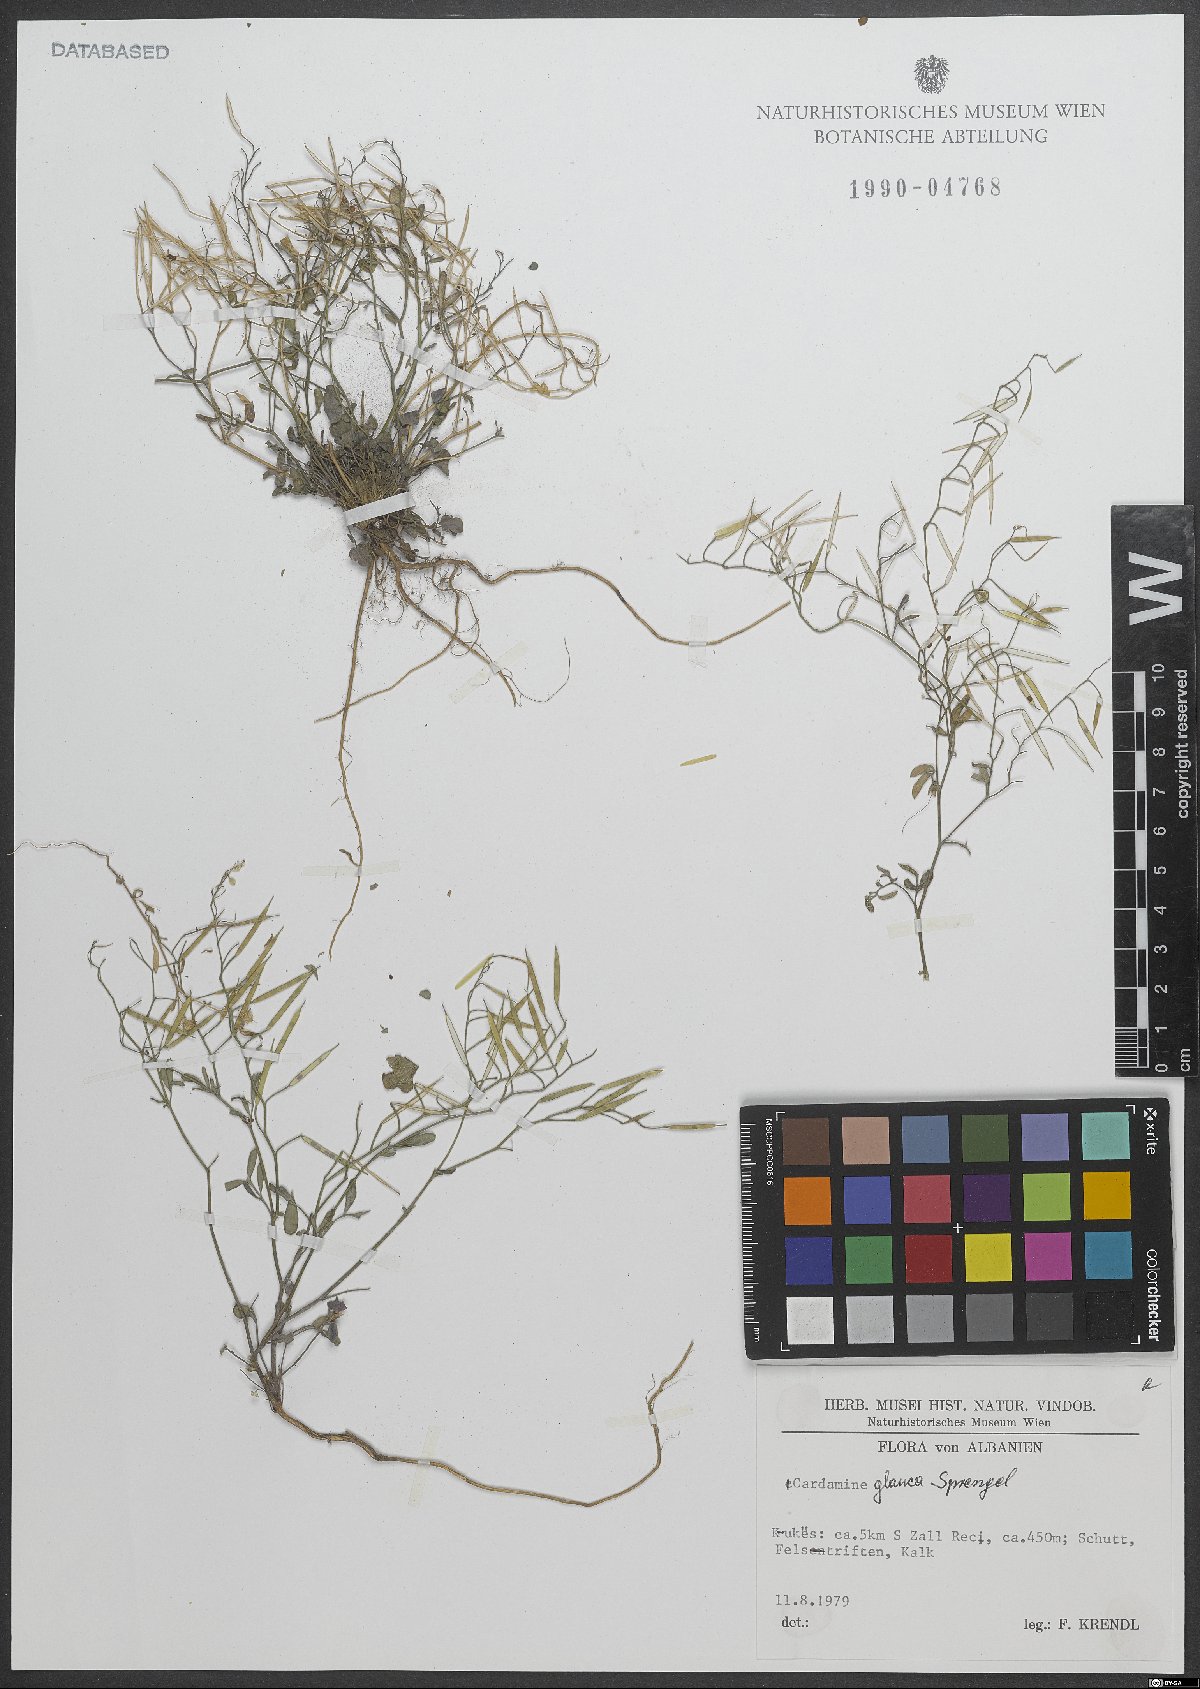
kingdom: Plantae
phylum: Tracheophyta
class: Magnoliopsida
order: Brassicales
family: Brassicaceae
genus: Cardamine
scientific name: Cardamine glauca
